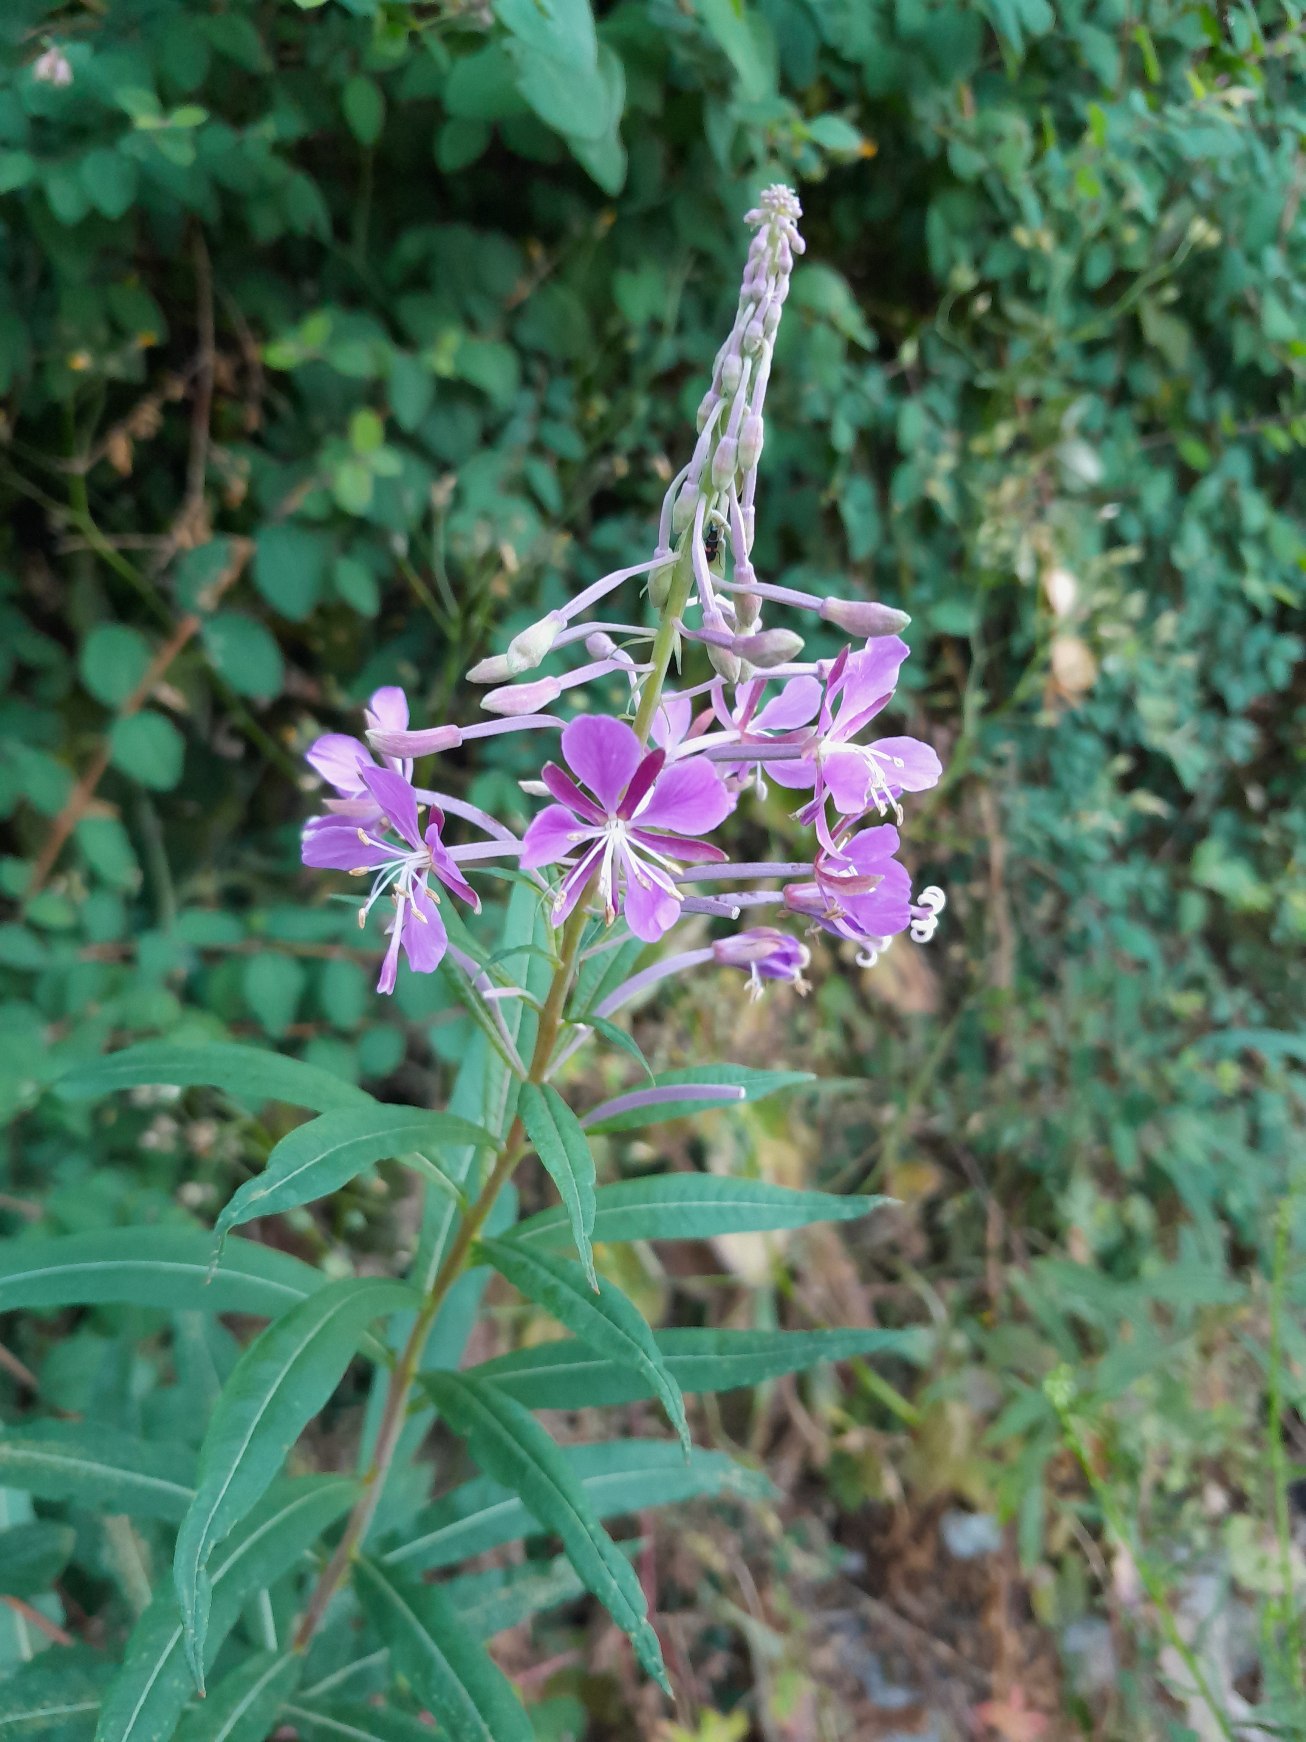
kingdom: Plantae
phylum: Tracheophyta
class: Magnoliopsida
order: Myrtales
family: Onagraceae
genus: Chamaenerion
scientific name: Chamaenerion angustifolium
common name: Gederams
